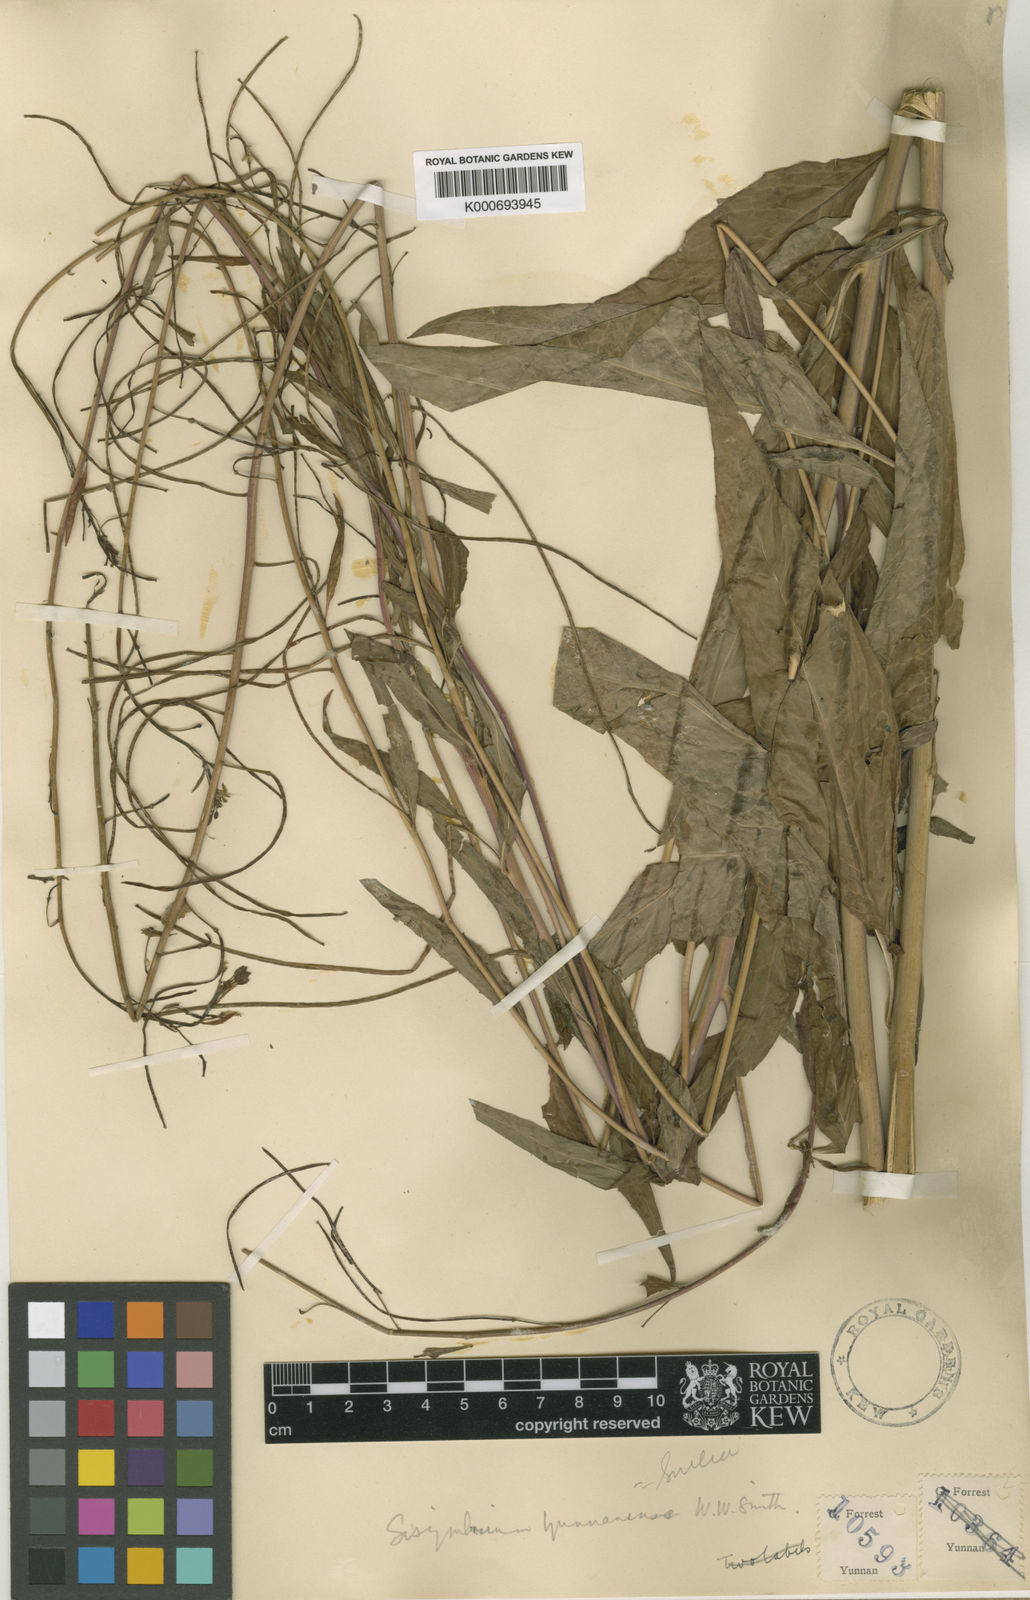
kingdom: Plantae
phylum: Tracheophyta
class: Magnoliopsida
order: Brassicales
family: Brassicaceae
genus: Sisymbrium
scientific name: Sisymbrium yunnanense
